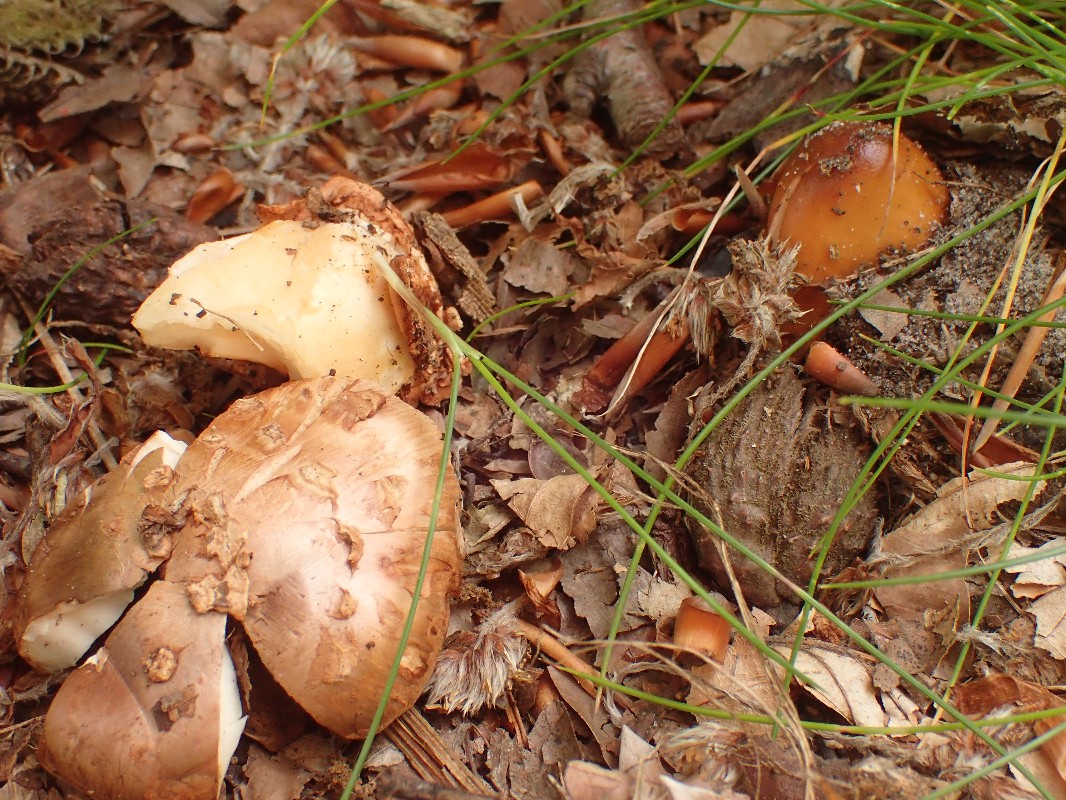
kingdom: Fungi
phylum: Basidiomycota
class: Agaricomycetes
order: Agaricales
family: Amanitaceae
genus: Amanita
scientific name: Amanita
